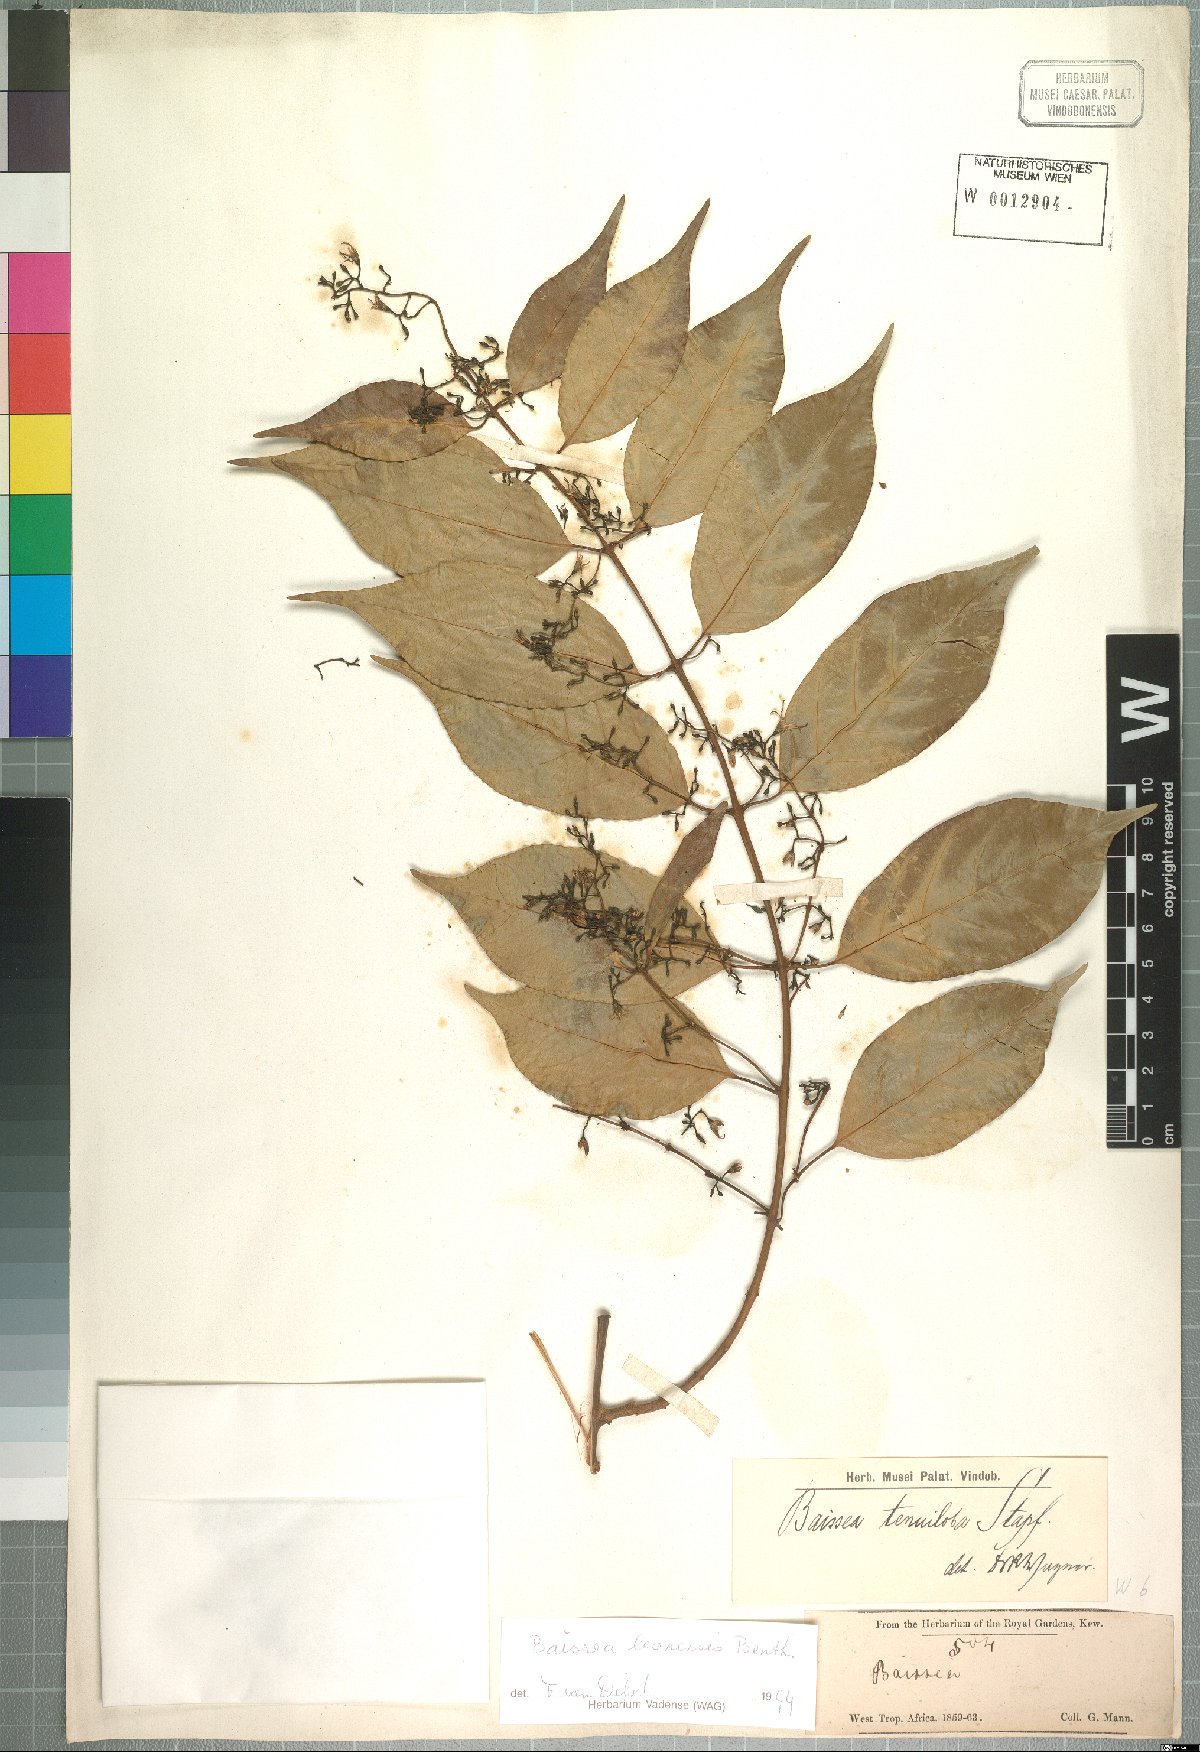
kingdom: Plantae
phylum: Tracheophyta
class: Magnoliopsida
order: Gentianales
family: Apocynaceae
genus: Baissea
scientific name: Baissea leonensis
